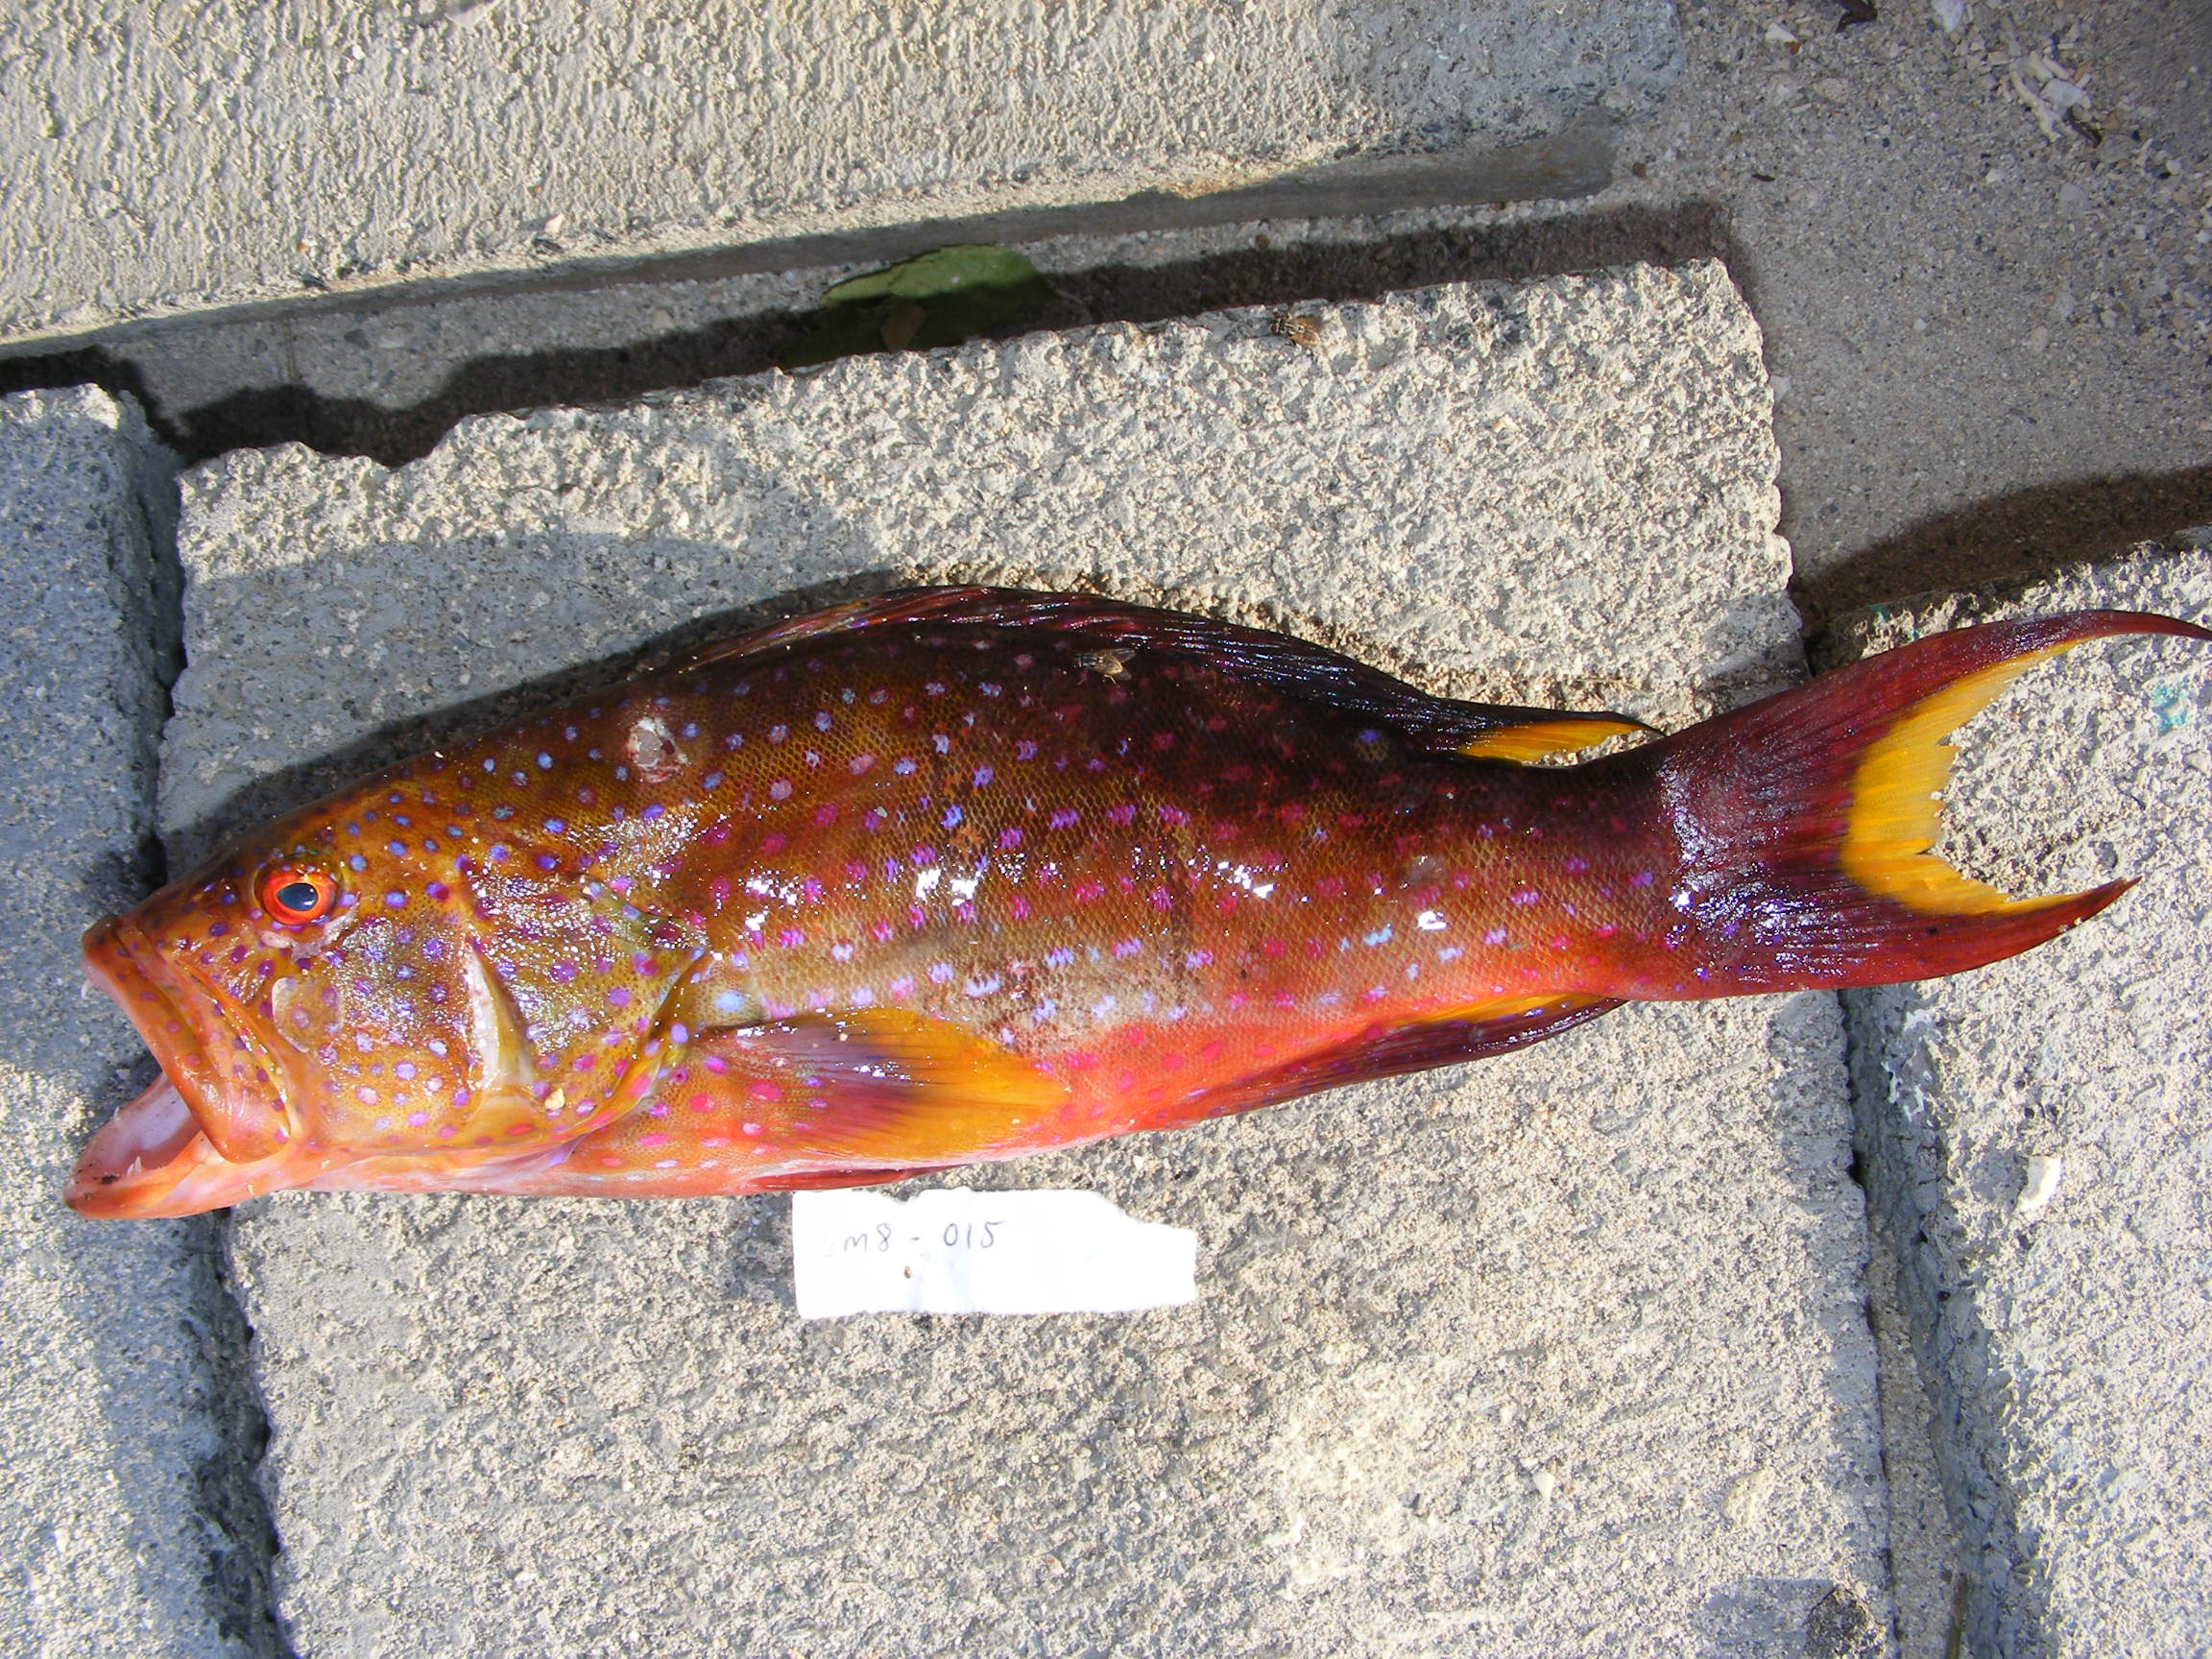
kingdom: Animalia
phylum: Chordata
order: Perciformes
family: Serranidae
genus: Variola
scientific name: Variola louti
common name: Yellow-edged lyretail
